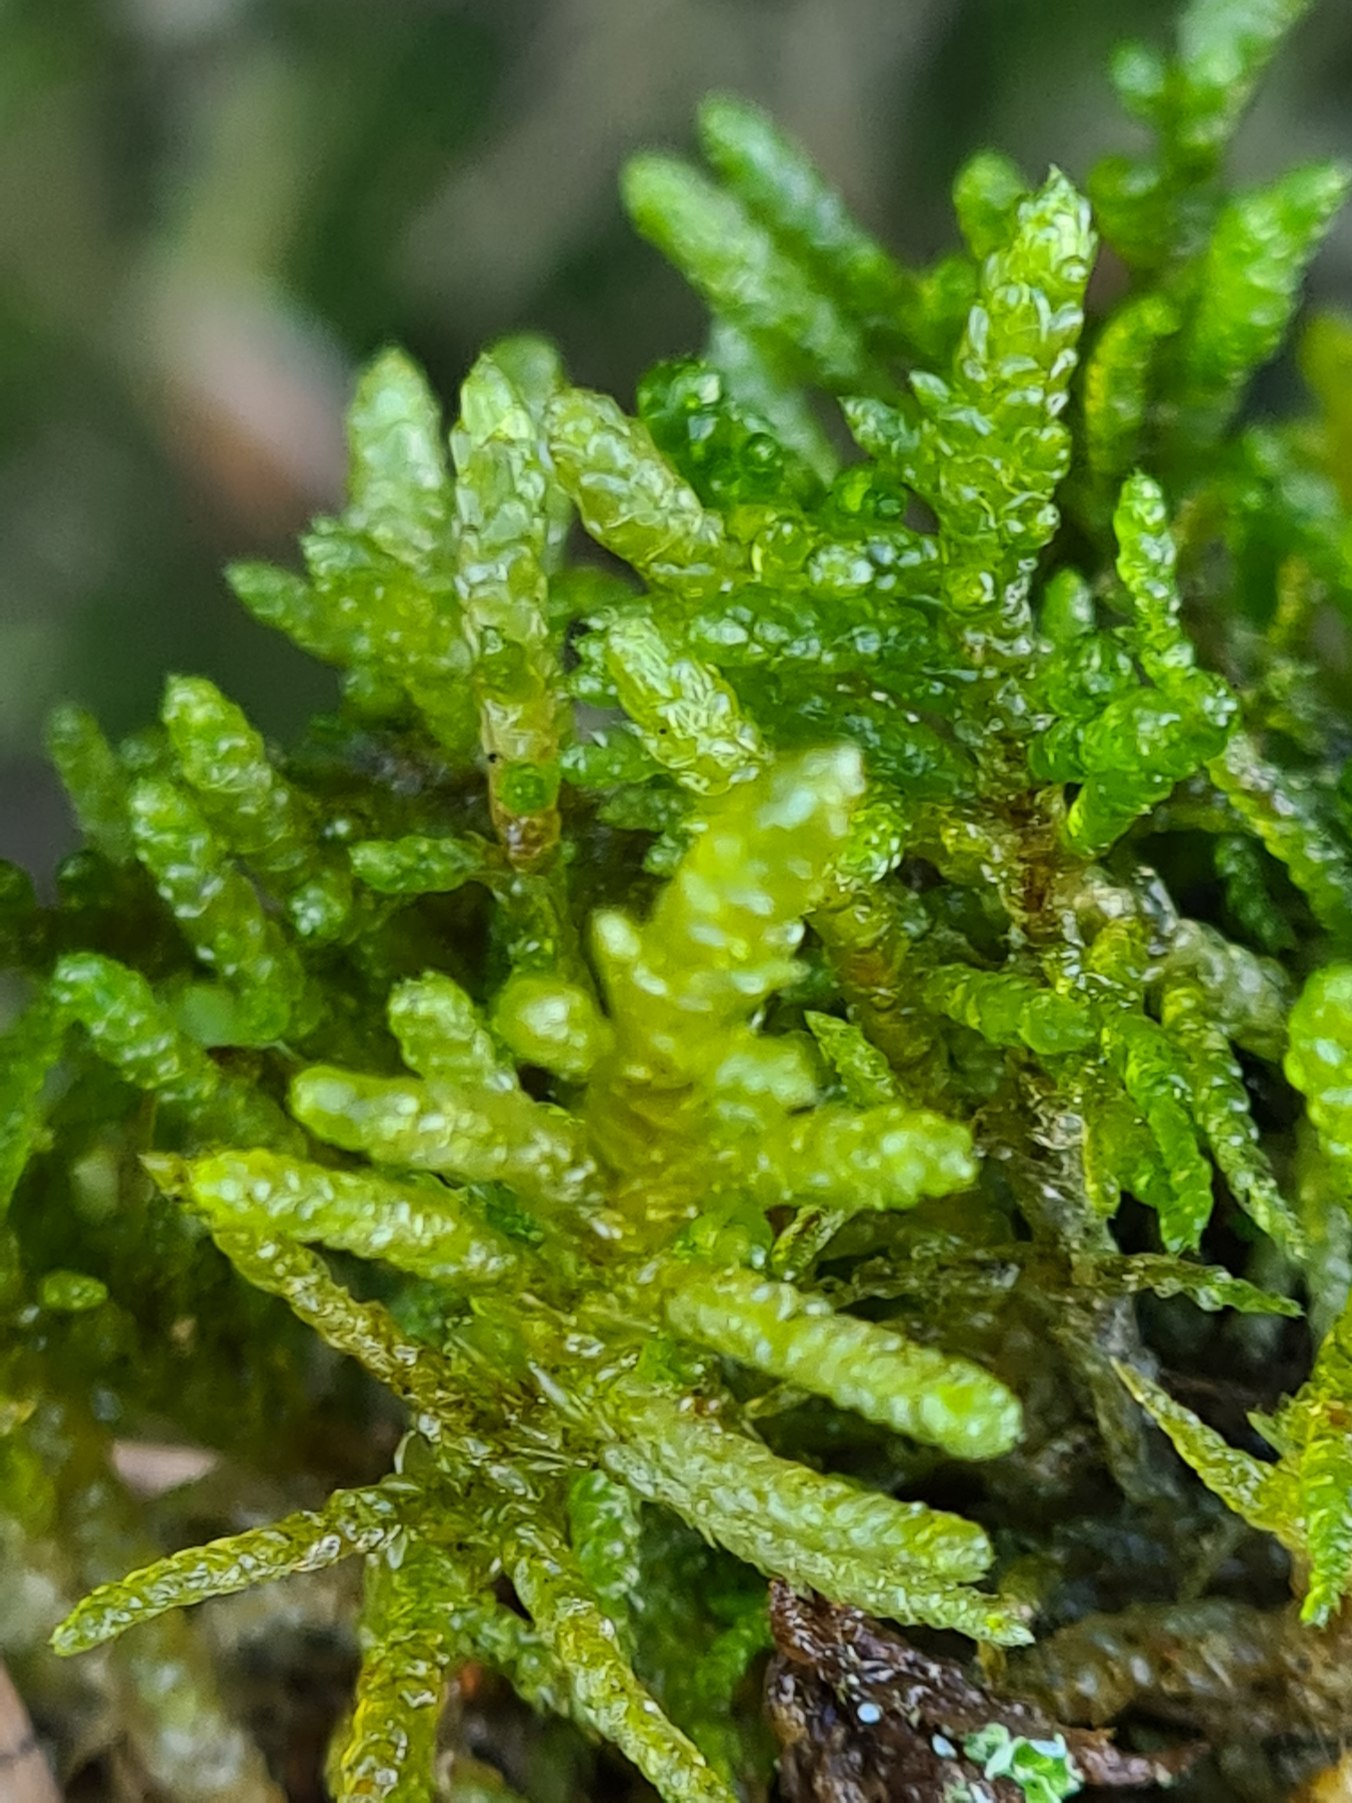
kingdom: Plantae
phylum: Bryophyta
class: Bryopsida
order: Hypnales
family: Brachytheciaceae
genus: Pseudoscleropodium
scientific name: Pseudoscleropodium purum
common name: Hulbladet fedtmos
